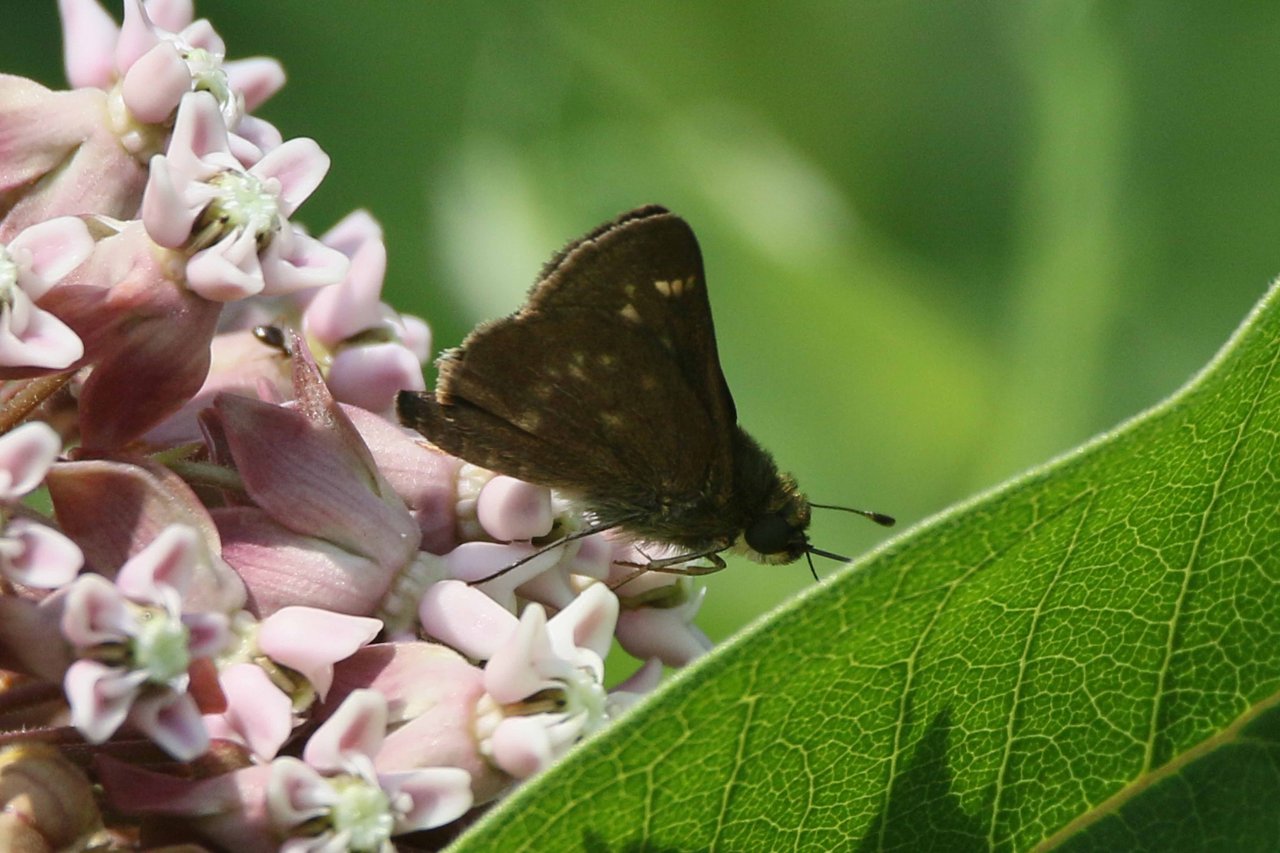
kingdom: Animalia
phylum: Arthropoda
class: Insecta
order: Lepidoptera
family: Hesperiidae
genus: Vernia
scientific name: Vernia verna
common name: Little Glassywing
